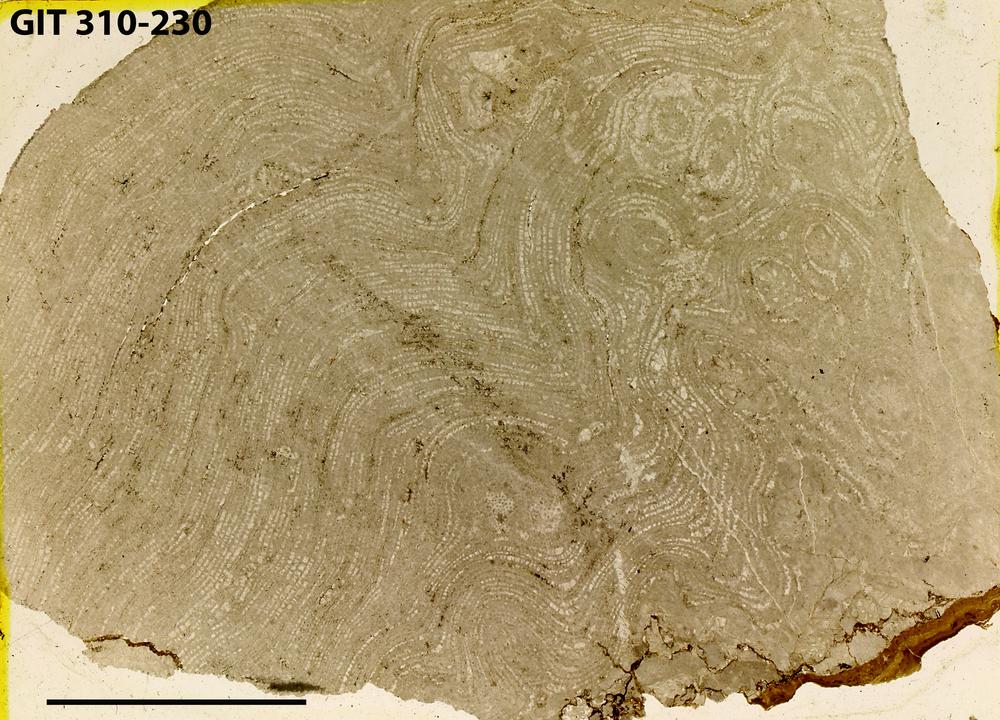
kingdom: Animalia
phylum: Porifera
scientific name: Porifera
